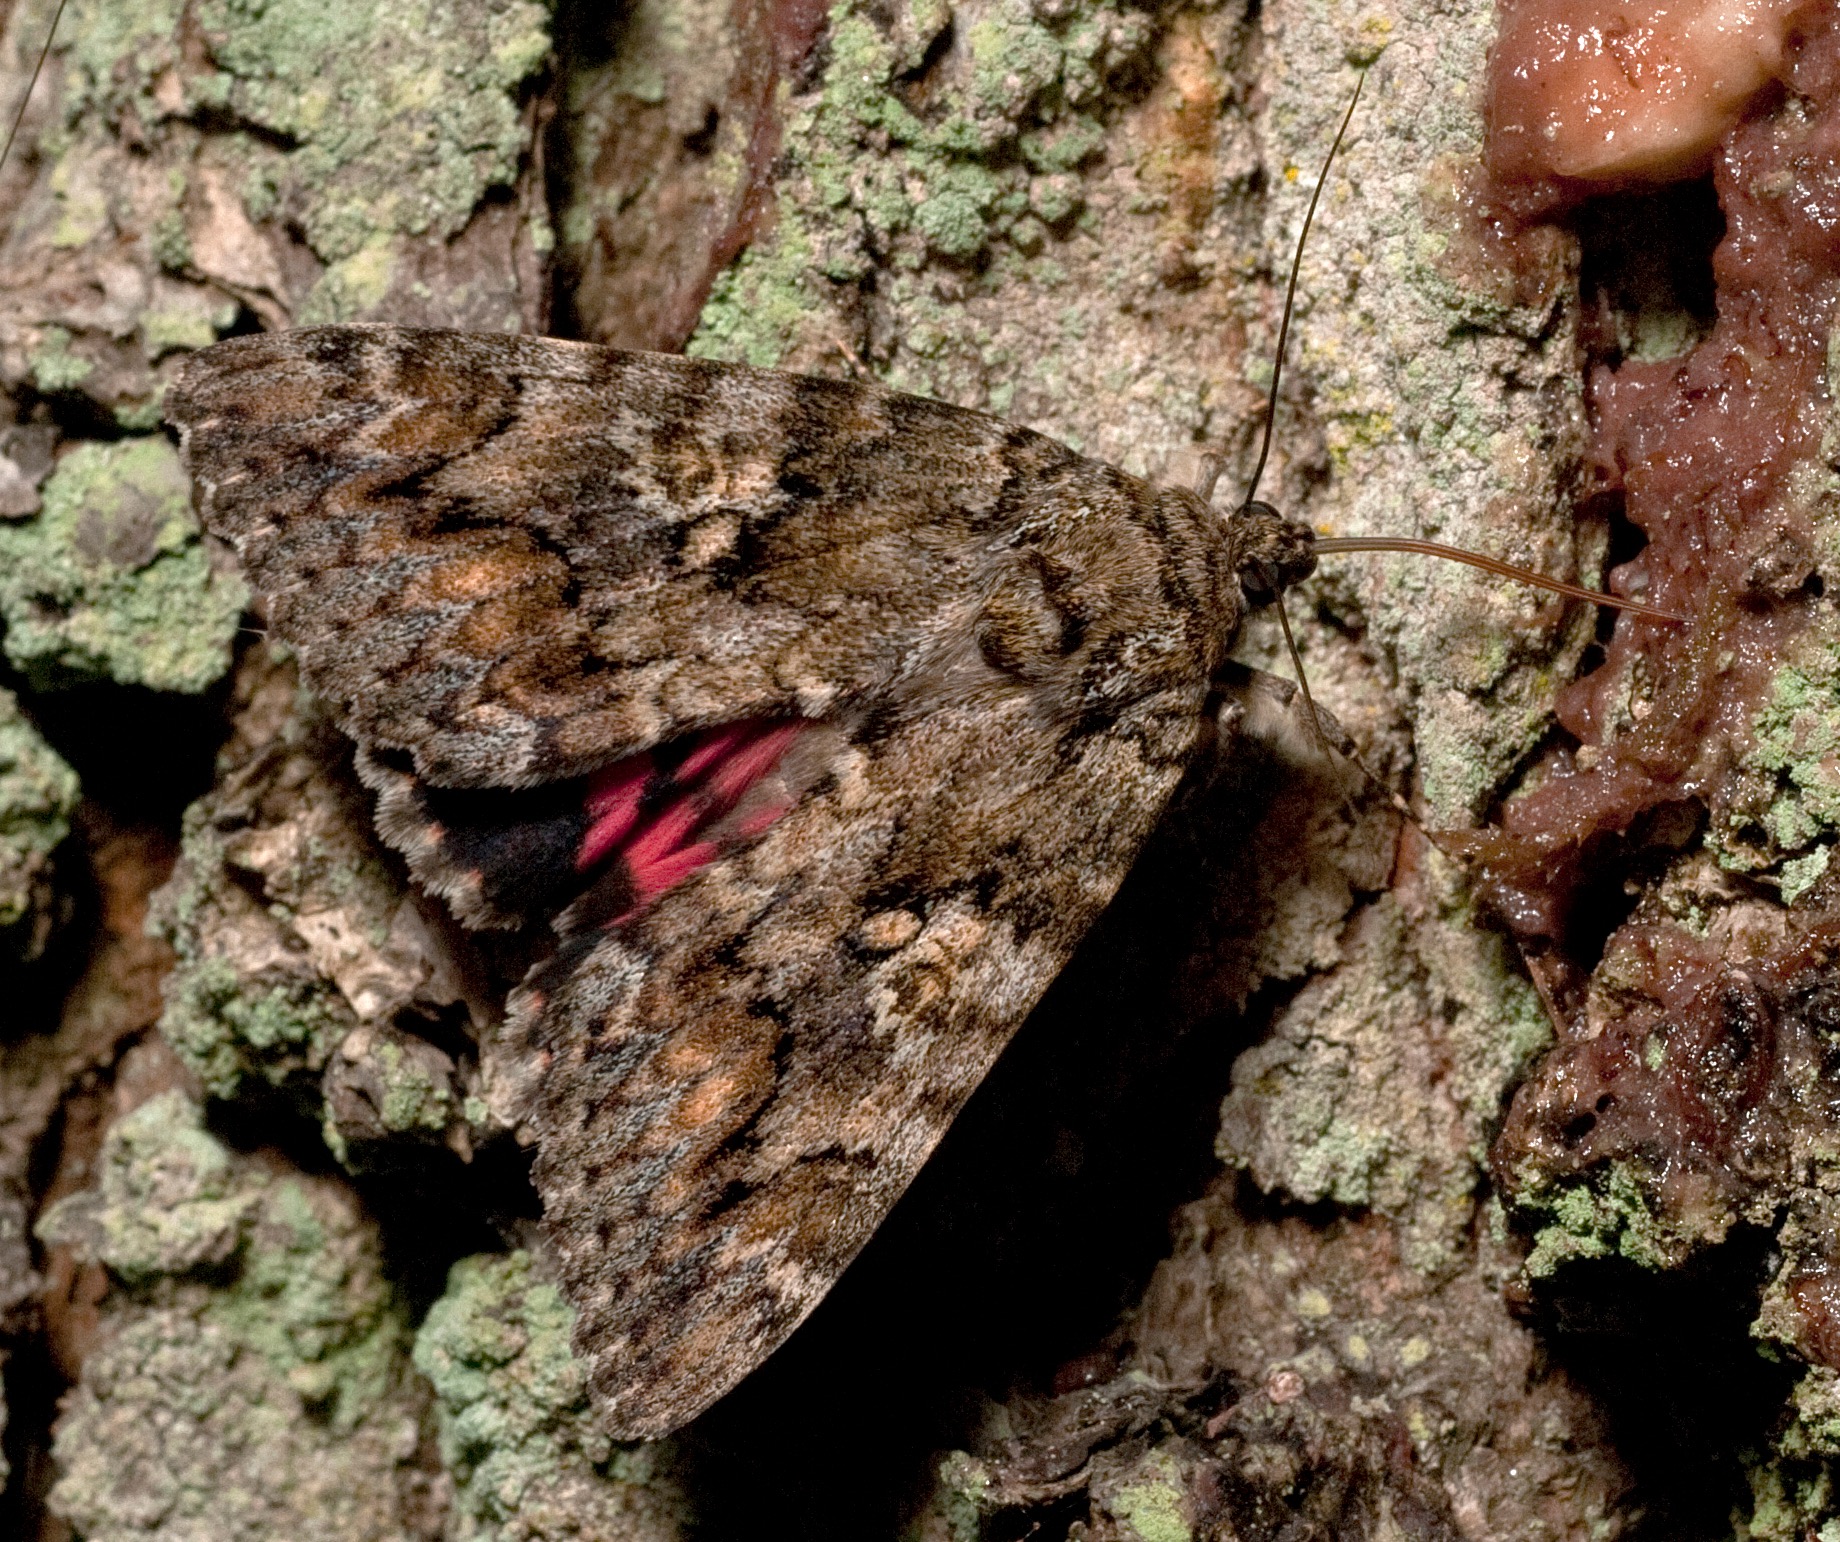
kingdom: Animalia
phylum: Arthropoda
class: Insecta
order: Lepidoptera
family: Erebidae
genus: Catocala
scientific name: Catocala sponsa
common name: Egekarmin
